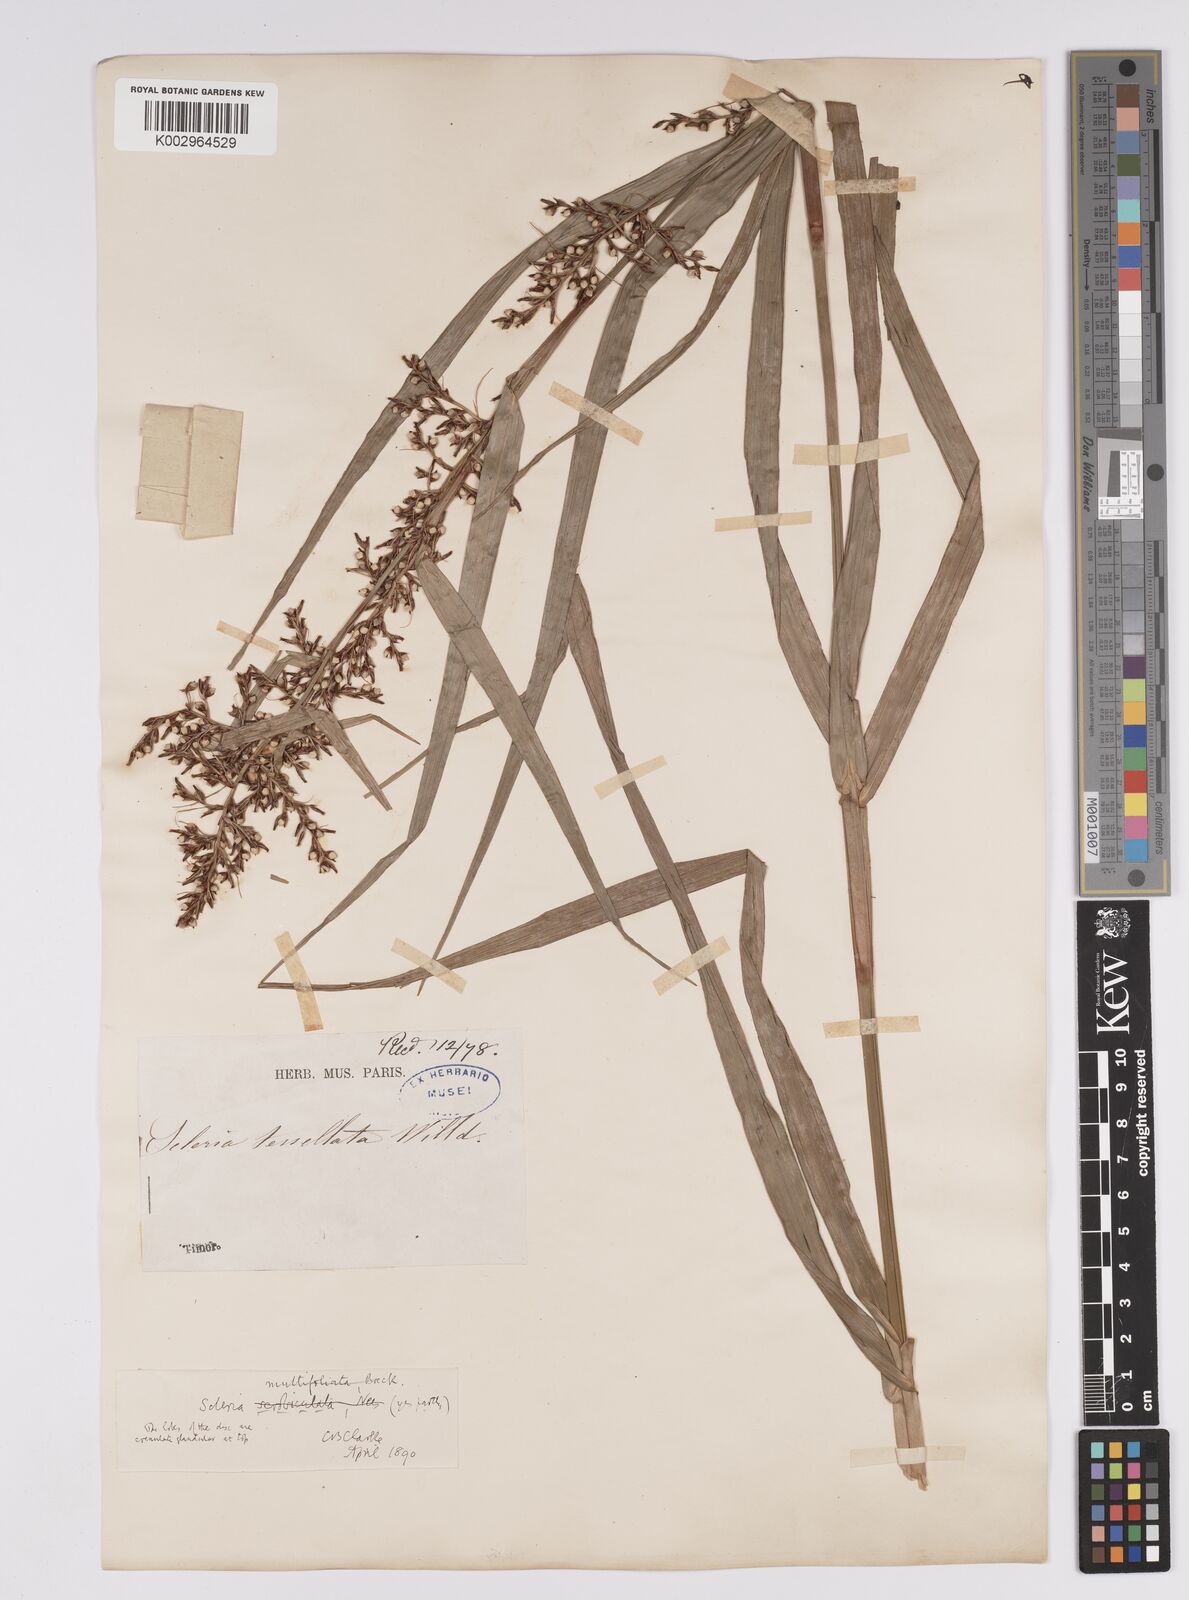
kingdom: Plantae
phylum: Tracheophyta
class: Liliopsida
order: Poales
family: Cyperaceae
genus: Scleria
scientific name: Scleria scrobiculata
